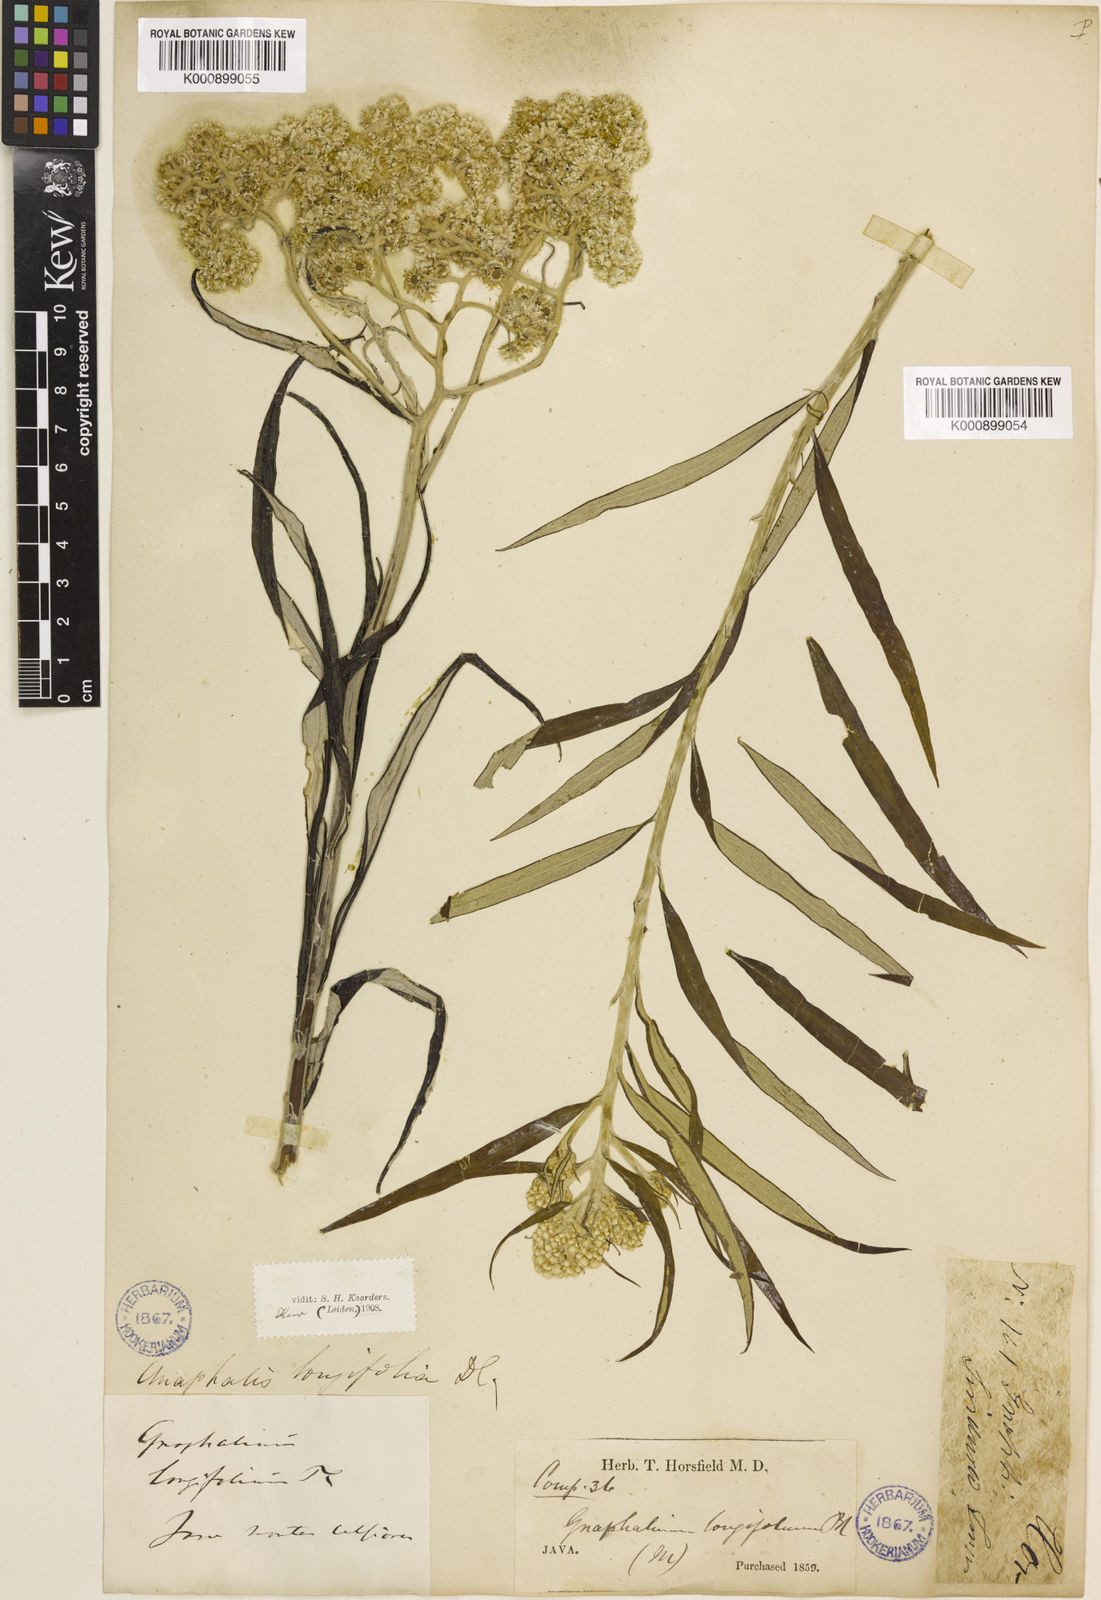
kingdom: Plantae
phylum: Tracheophyta
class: Magnoliopsida
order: Asterales
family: Asteraceae
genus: Anaphalis
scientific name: Anaphalis longifolia
